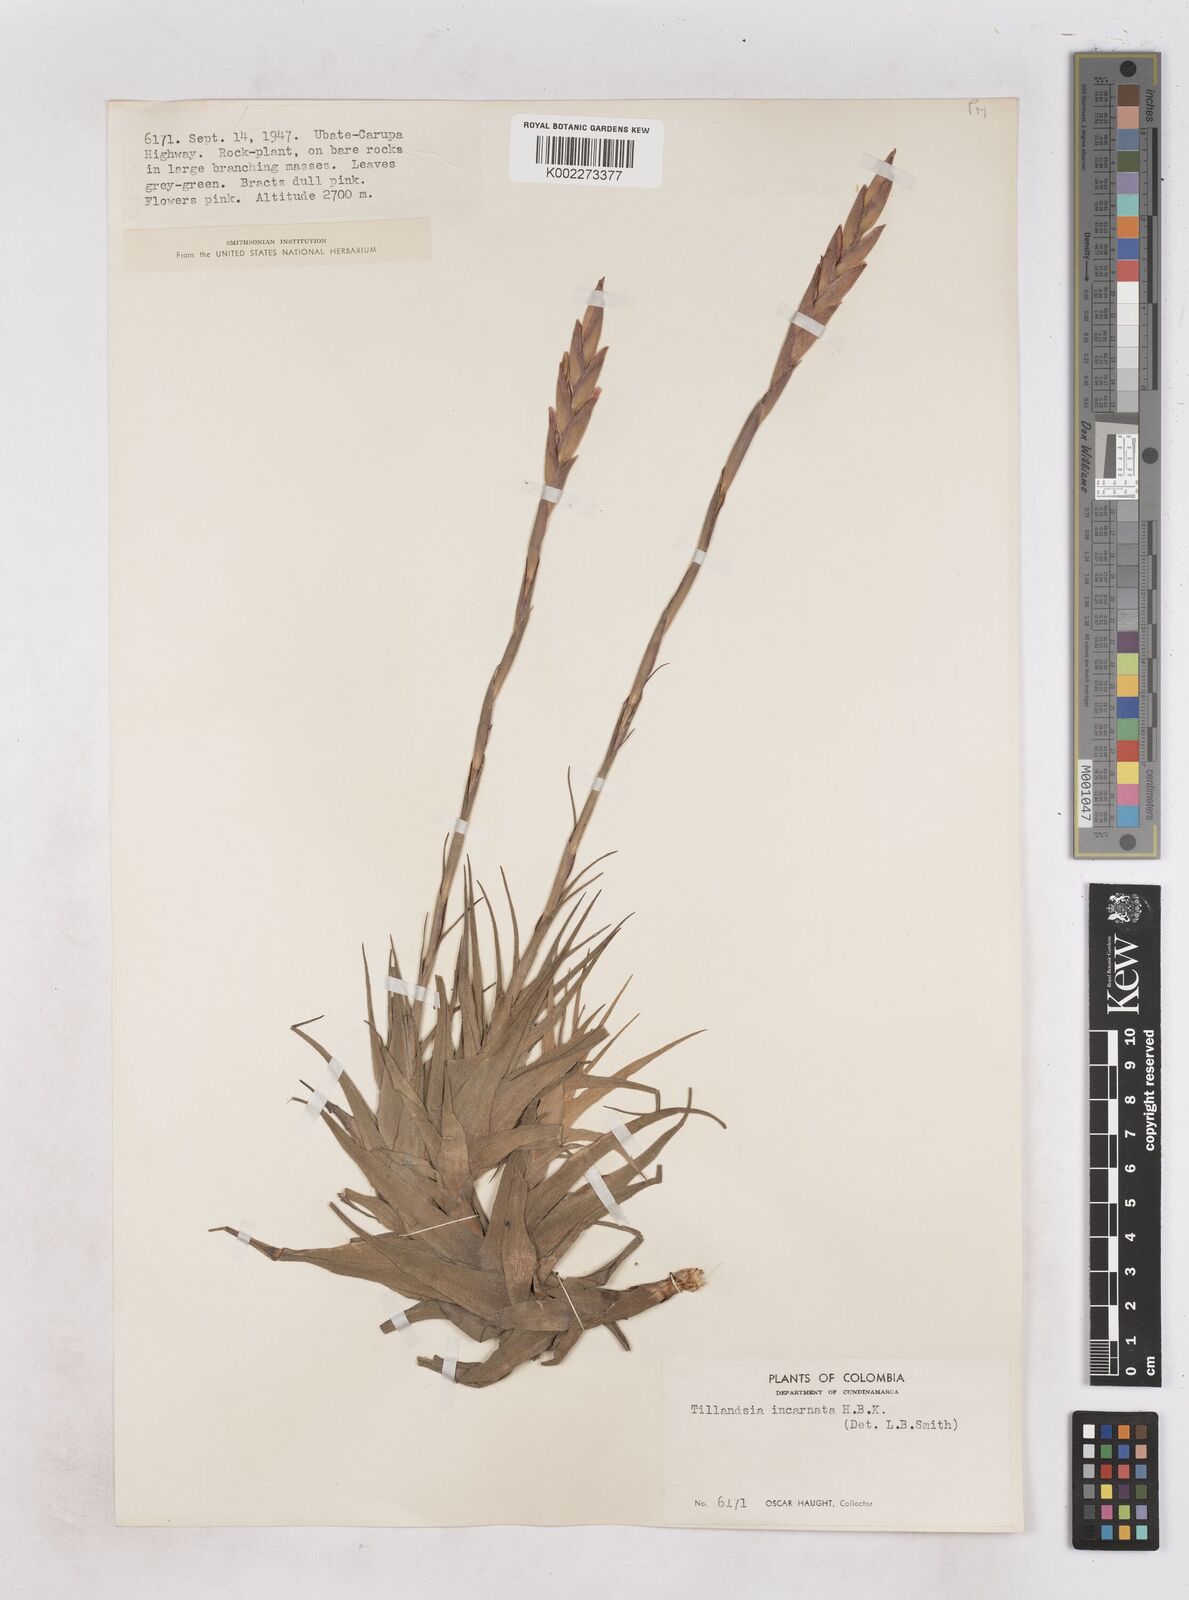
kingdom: Plantae
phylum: Tracheophyta
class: Liliopsida
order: Poales
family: Bromeliaceae
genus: Tillandsia
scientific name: Tillandsia incarnata
